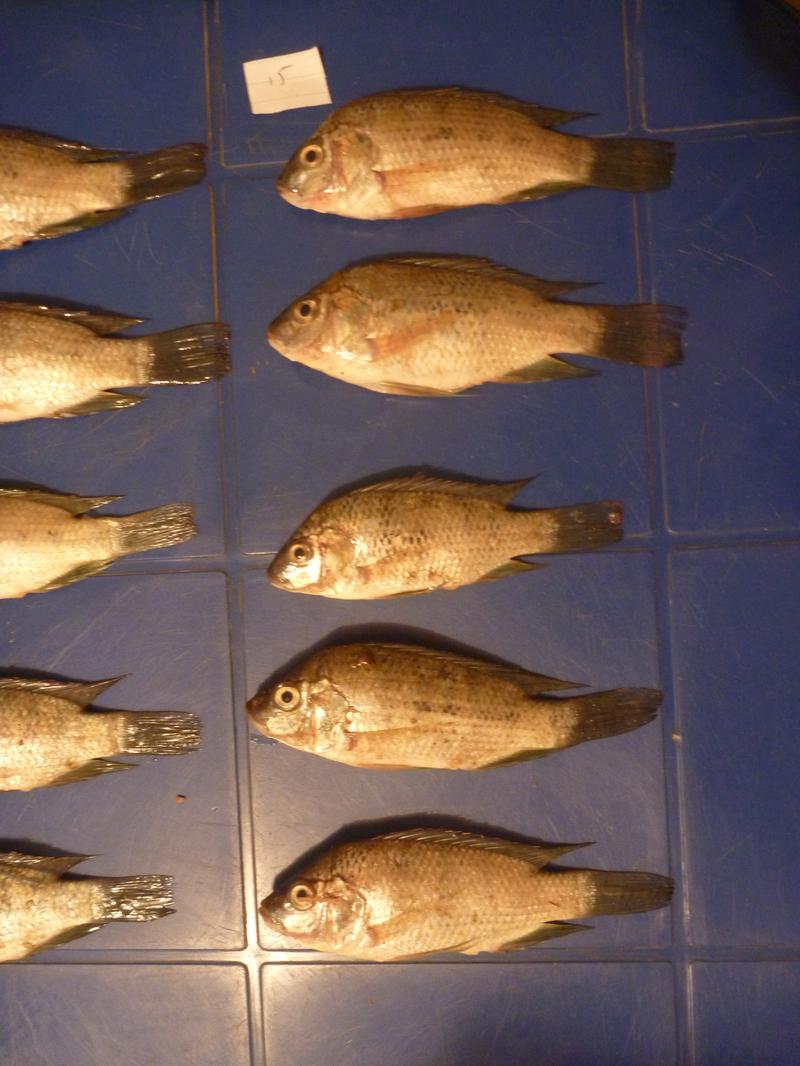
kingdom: Animalia
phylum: Chordata
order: Perciformes
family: Cichlidae
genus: Oreochromis
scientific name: Oreochromis urolepis
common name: Wami tilapia
